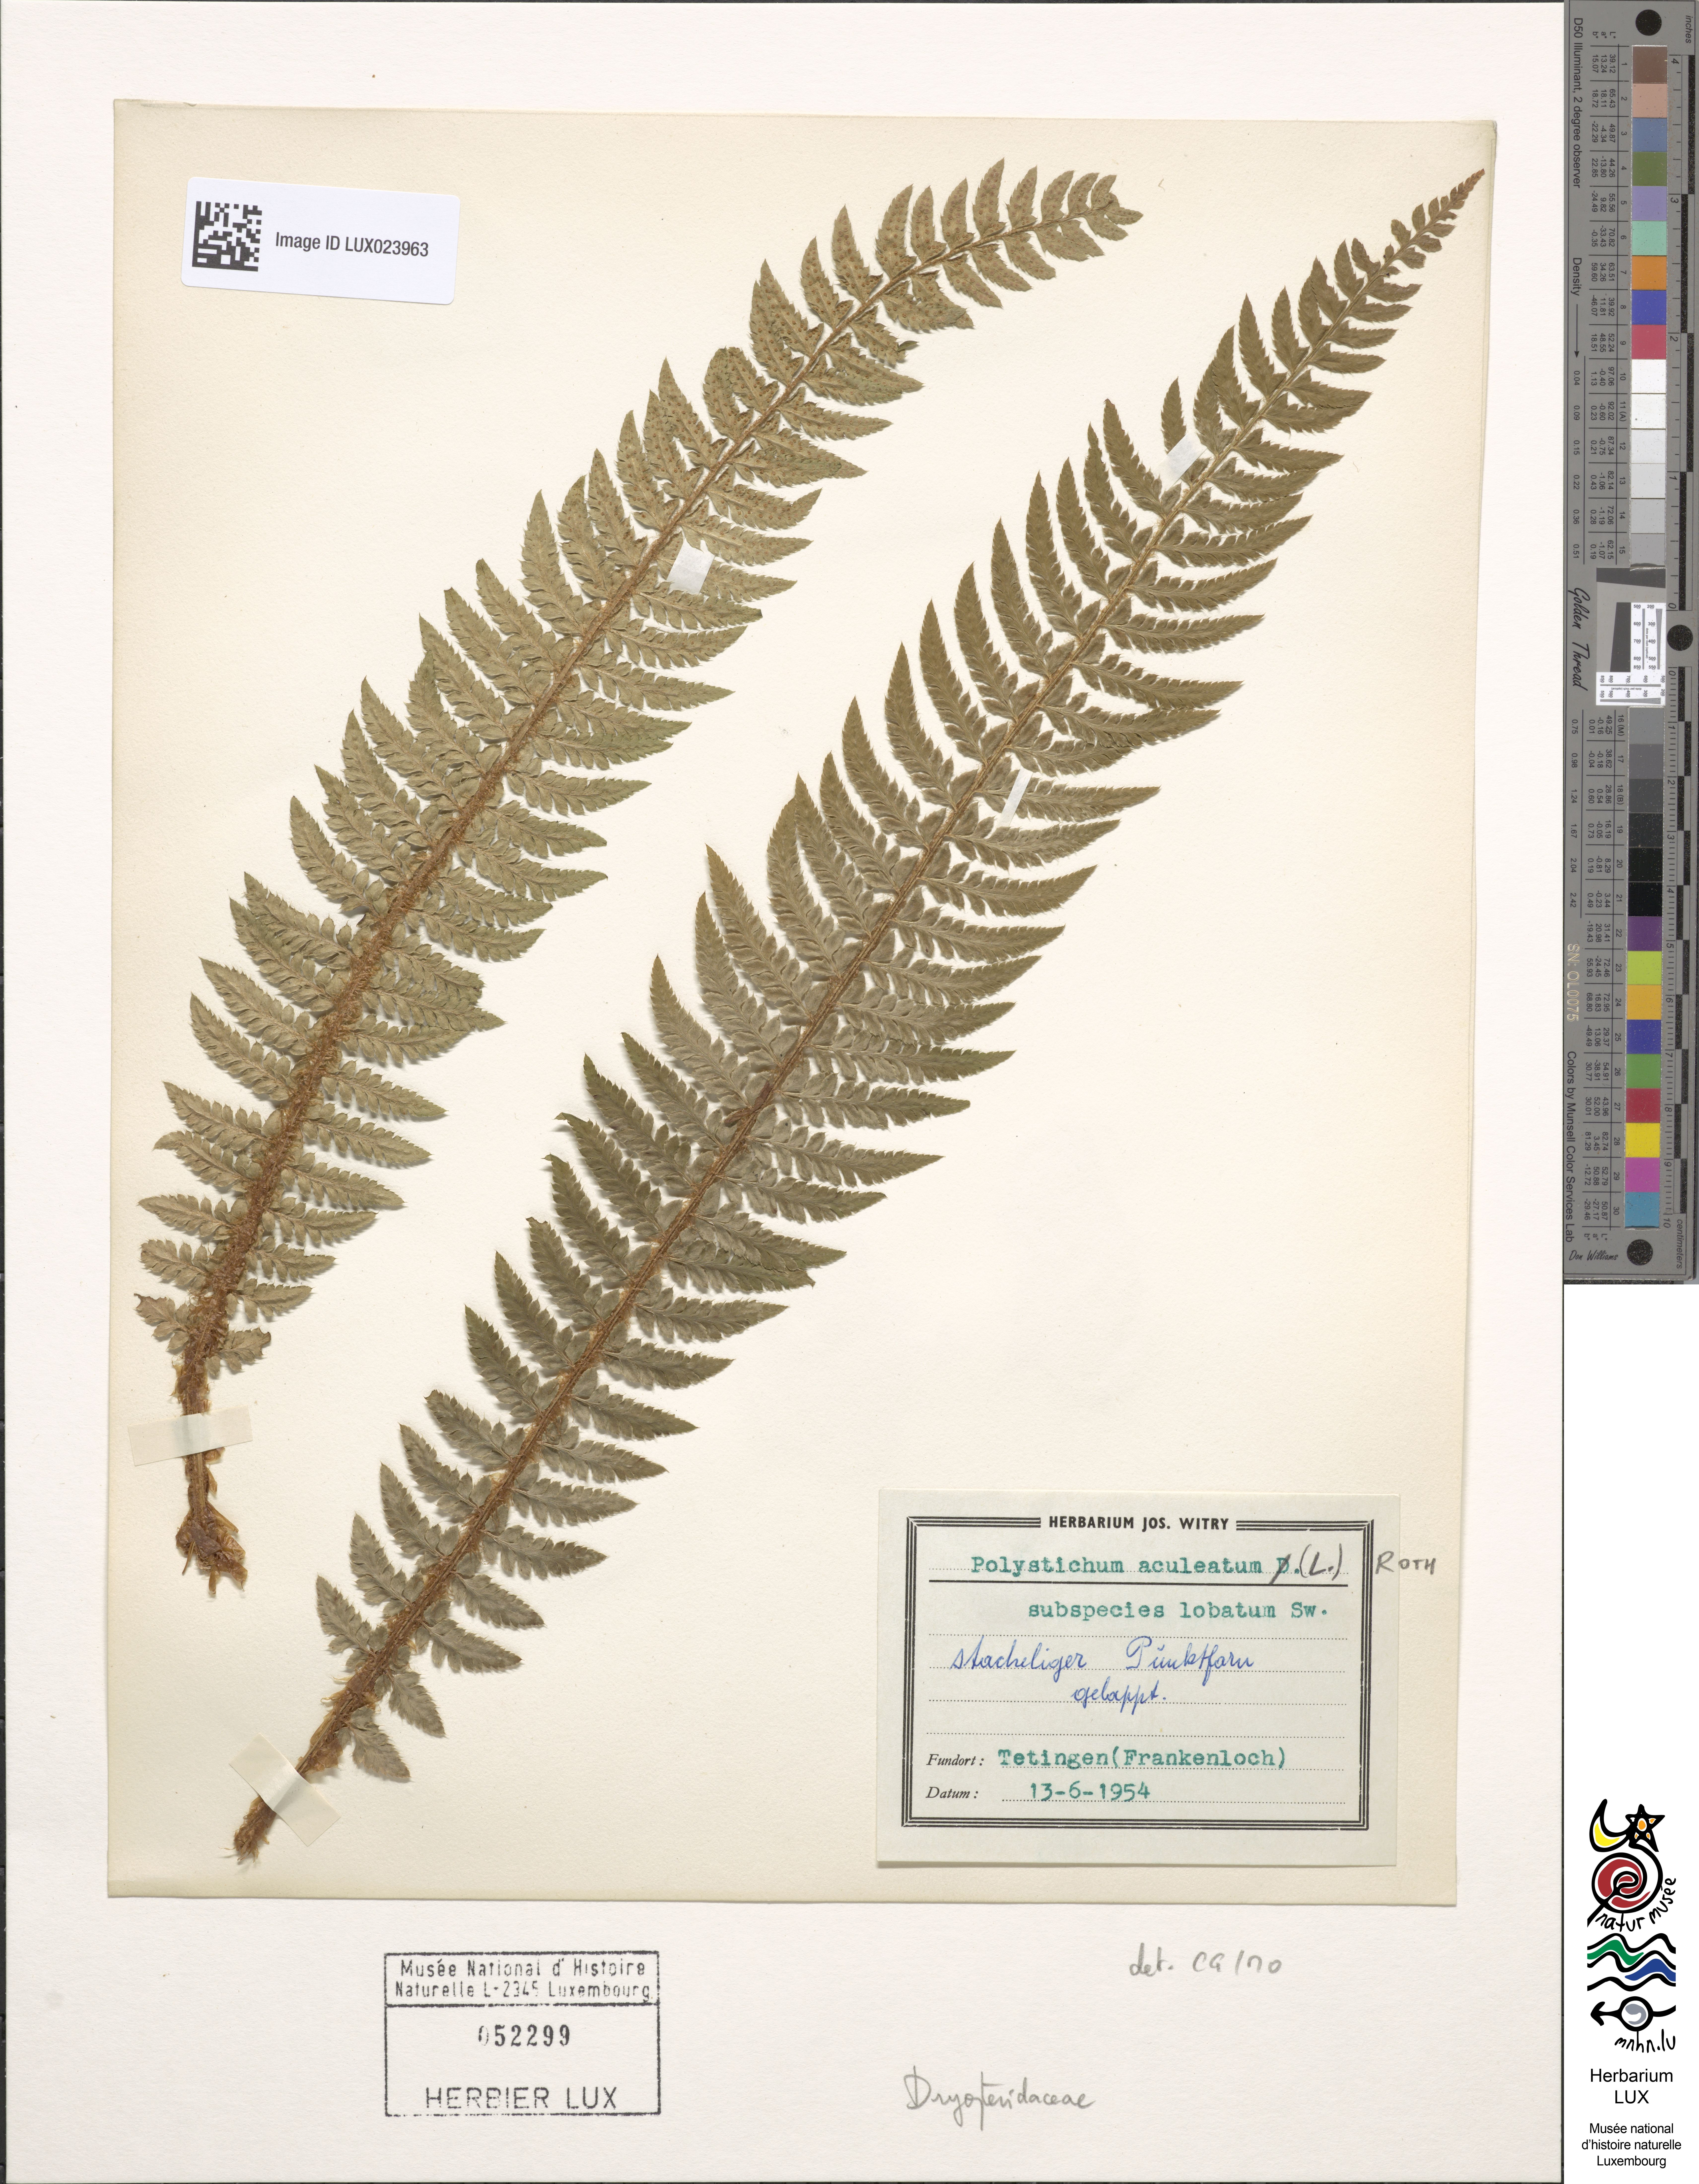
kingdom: Plantae
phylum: Tracheophyta
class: Polypodiopsida
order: Polypodiales
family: Dryopteridaceae
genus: Polystichum
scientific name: Polystichum aculeatum
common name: Hard shield-fern
